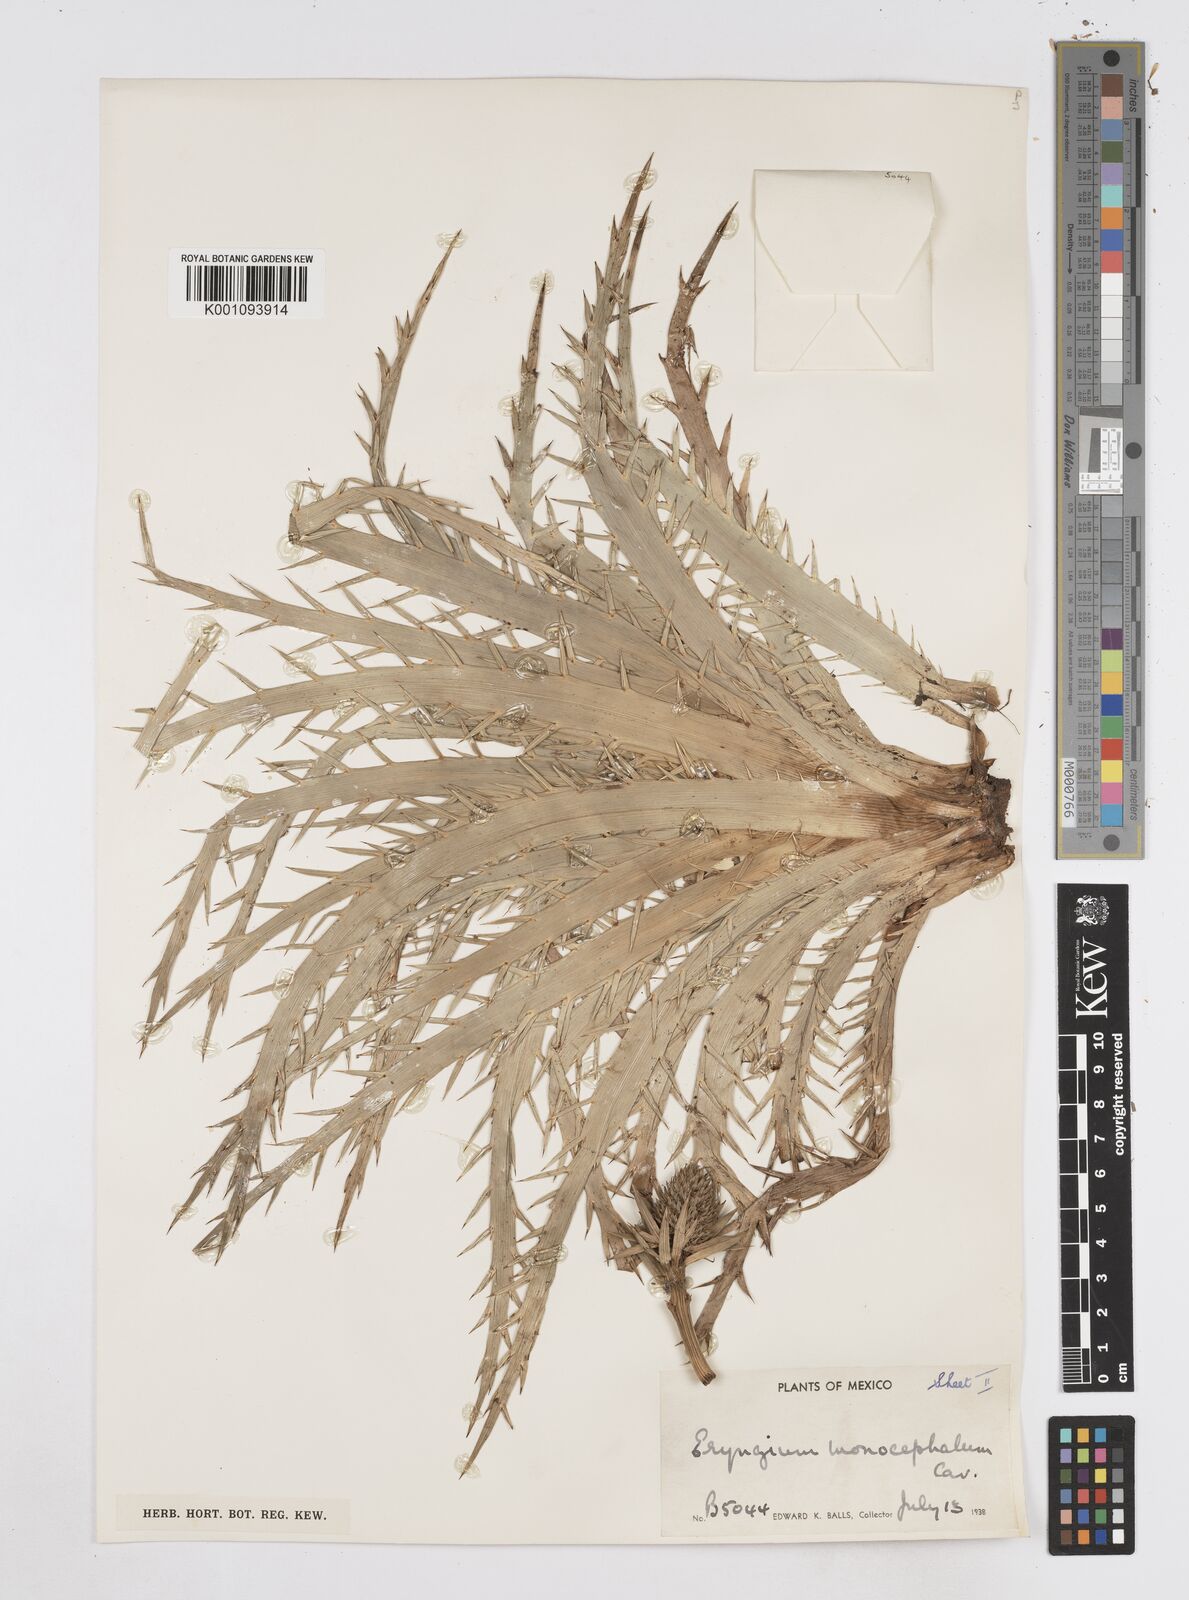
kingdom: Plantae
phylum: Tracheophyta
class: Magnoliopsida
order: Apiales
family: Apiaceae
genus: Eryngium
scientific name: Eryngium monocephalum
